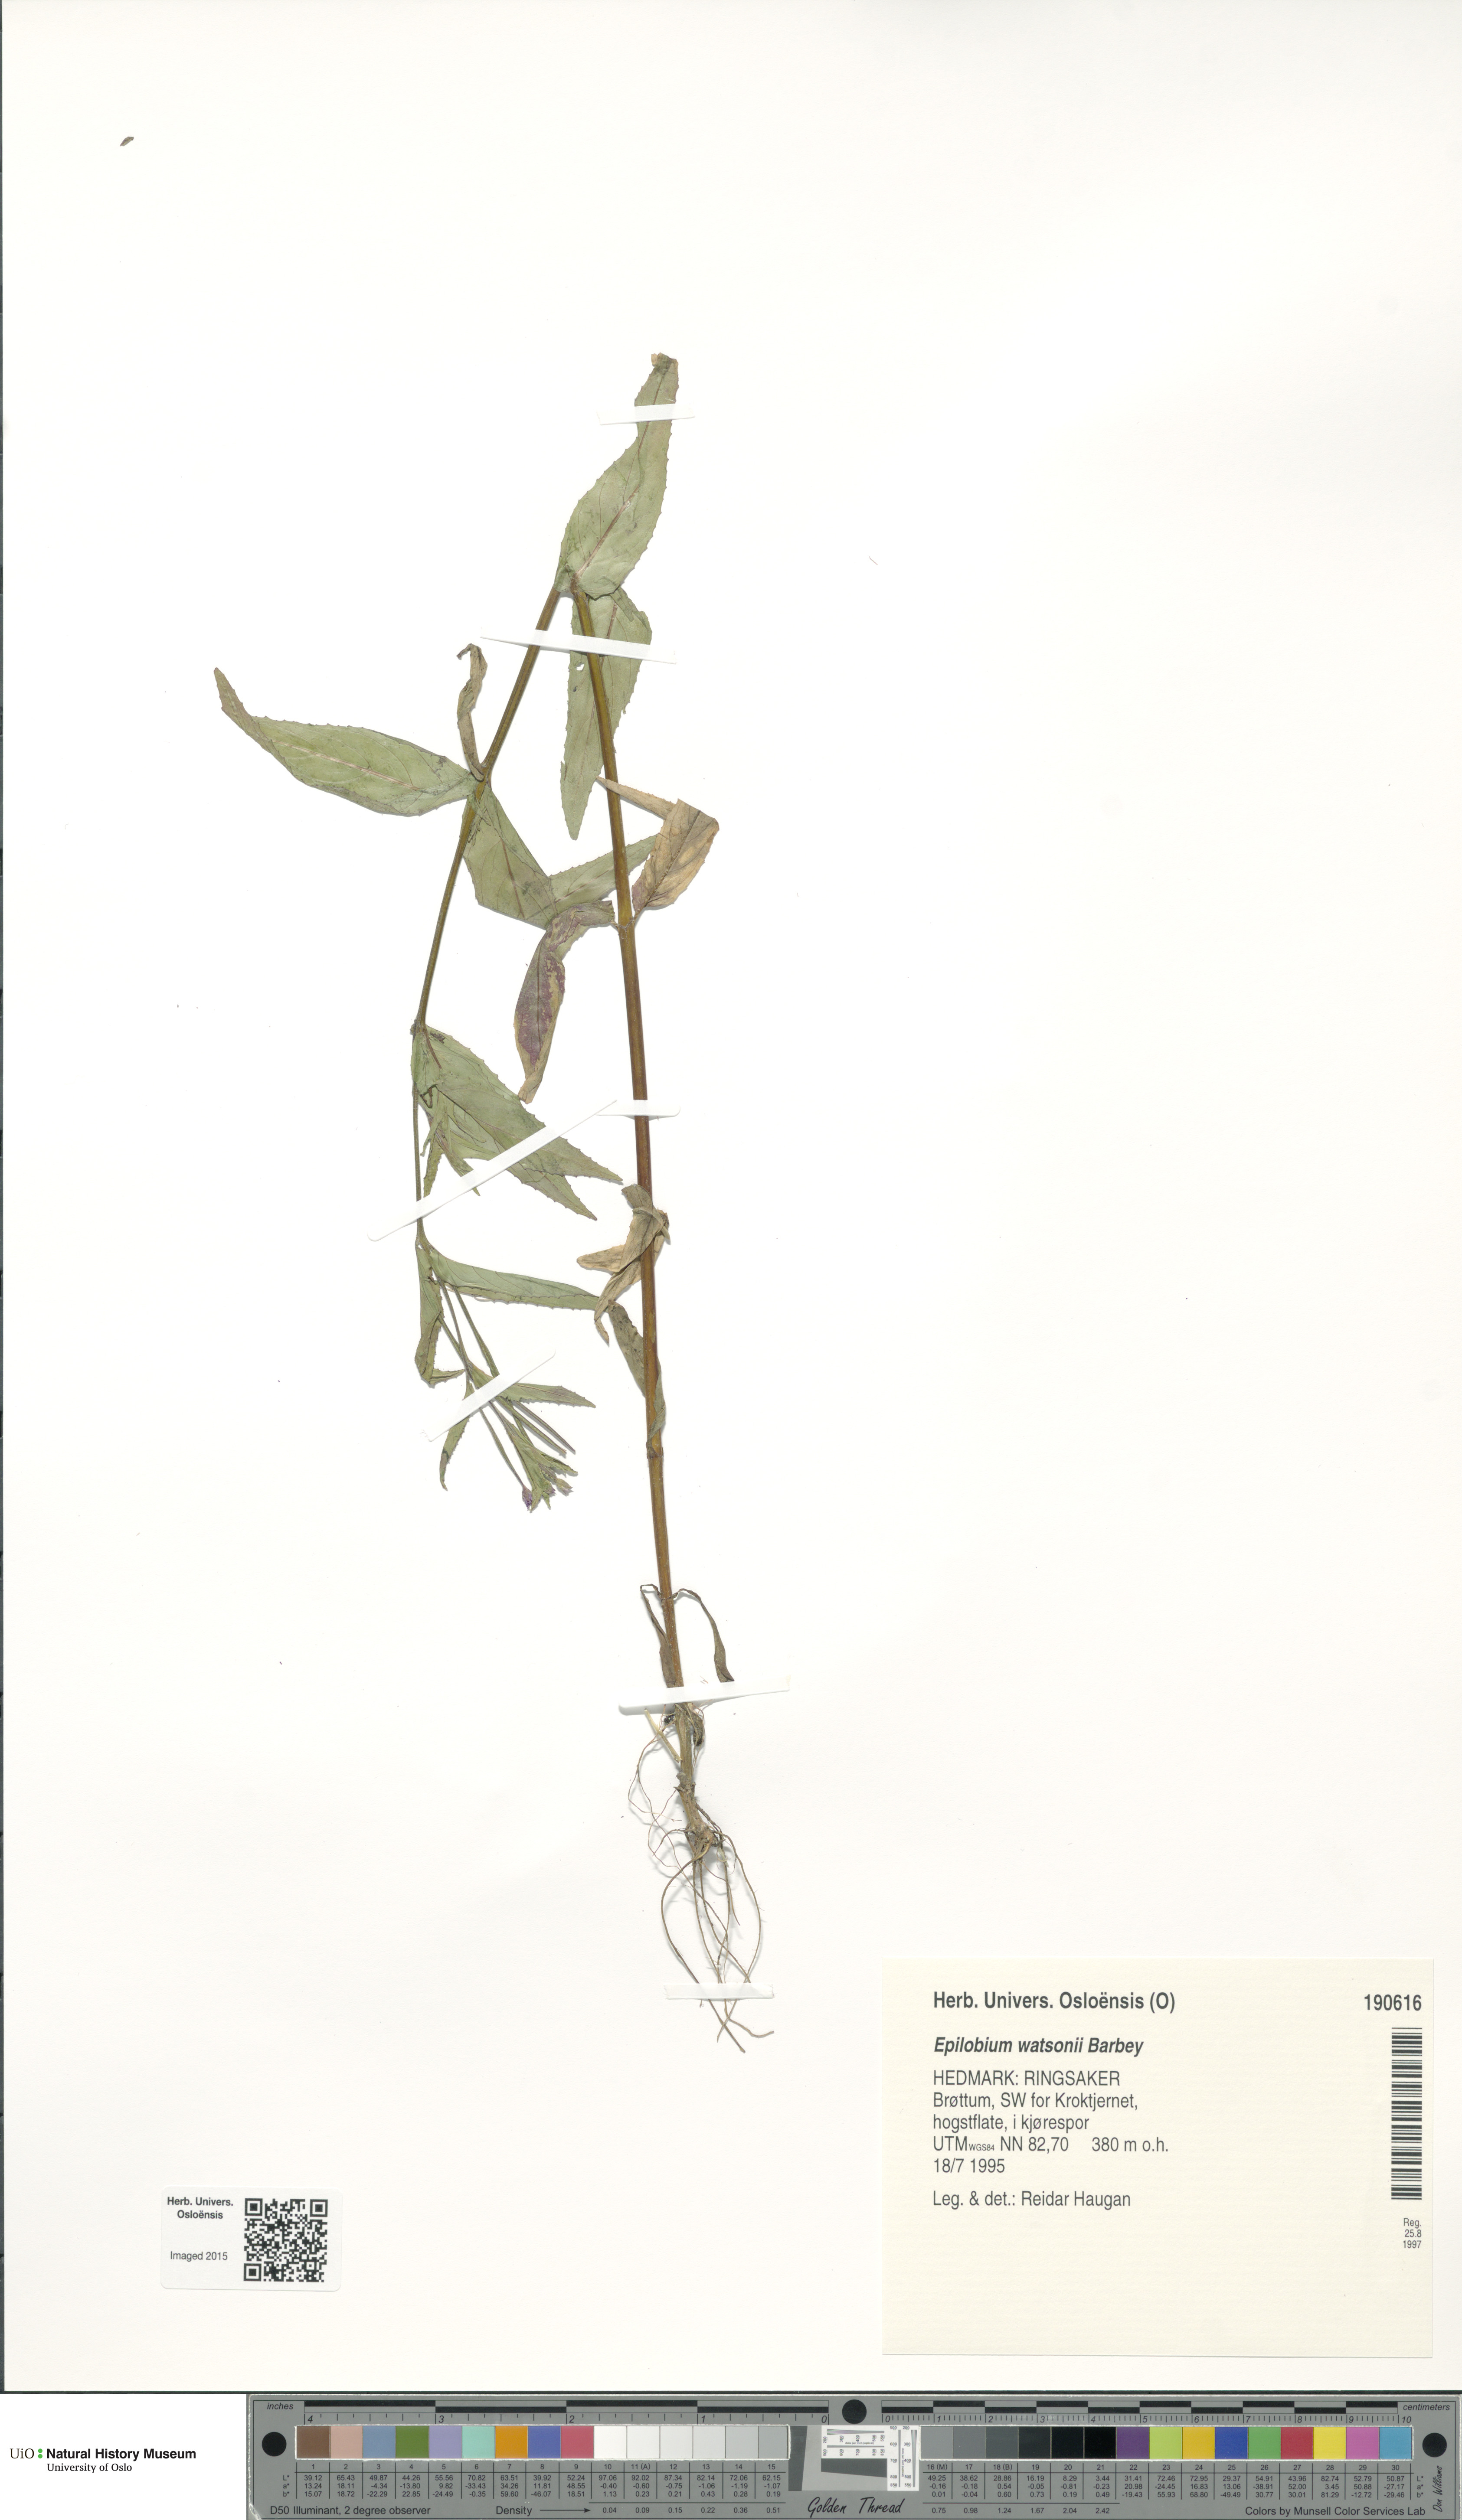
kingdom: Plantae
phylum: Tracheophyta
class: Magnoliopsida
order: Myrtales
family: Onagraceae
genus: Epilobium
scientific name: Epilobium ciliatum
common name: American willowherb
